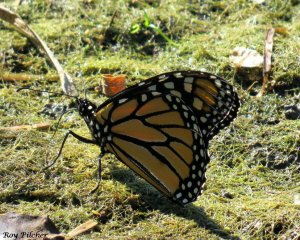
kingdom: Animalia
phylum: Arthropoda
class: Insecta
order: Lepidoptera
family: Nymphalidae
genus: Danaus
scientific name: Danaus plexippus
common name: Monarch
